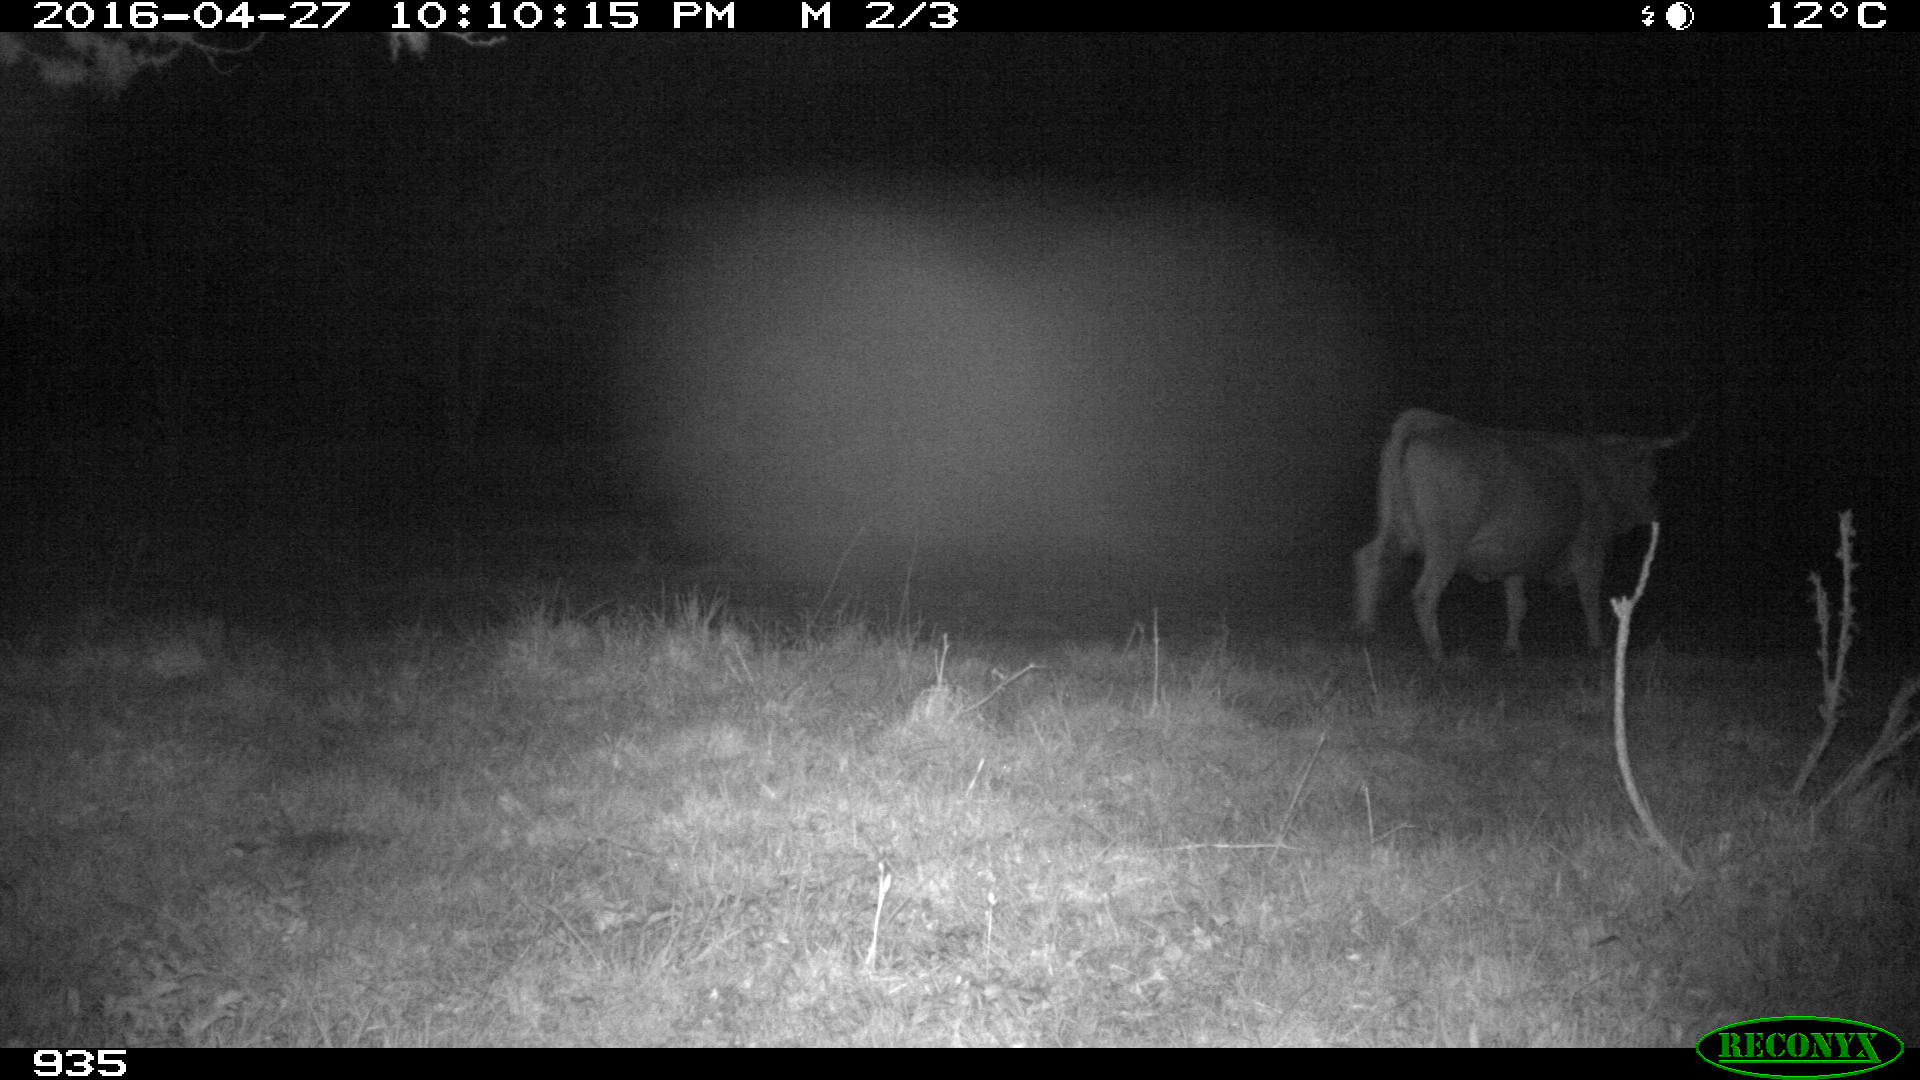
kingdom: Animalia
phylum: Chordata
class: Mammalia
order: Artiodactyla
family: Bovidae
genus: Bos
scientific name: Bos taurus
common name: Domesticated cattle
